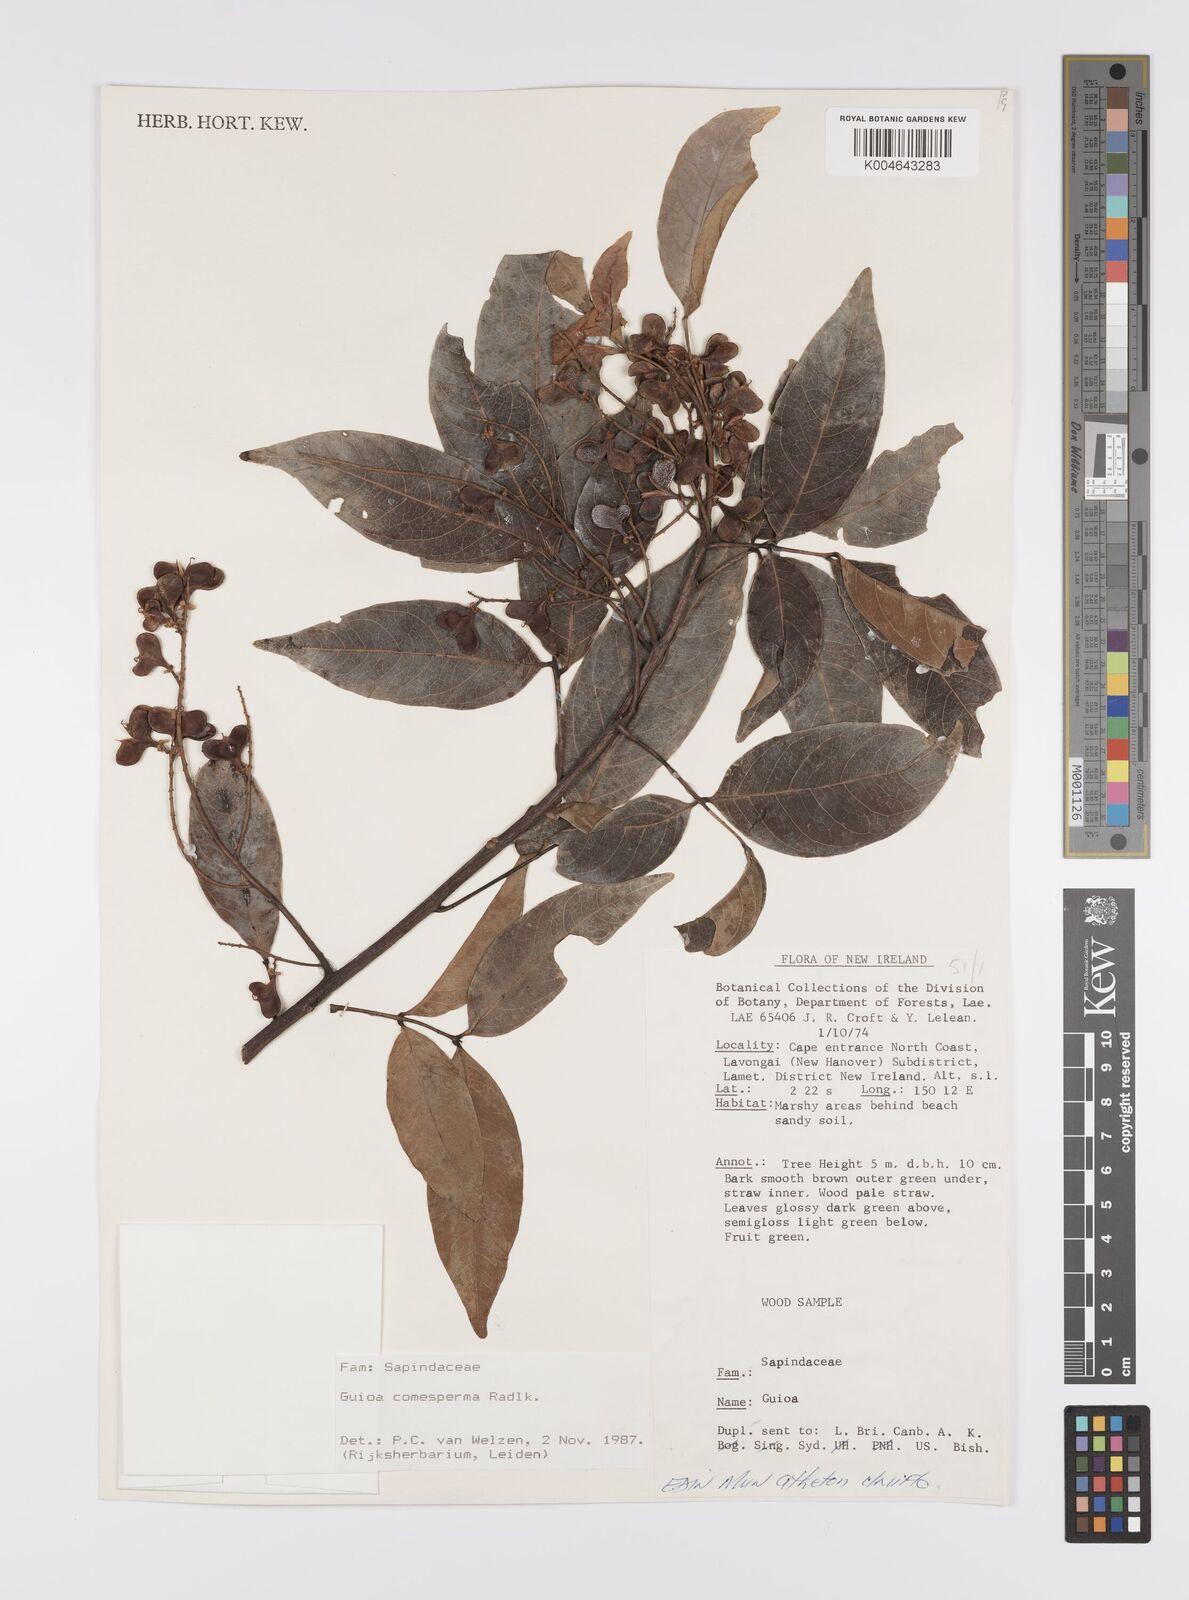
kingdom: Plantae
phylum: Tracheophyta
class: Magnoliopsida
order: Sapindales
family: Sapindaceae
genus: Guioa
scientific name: Guioa comesperma
